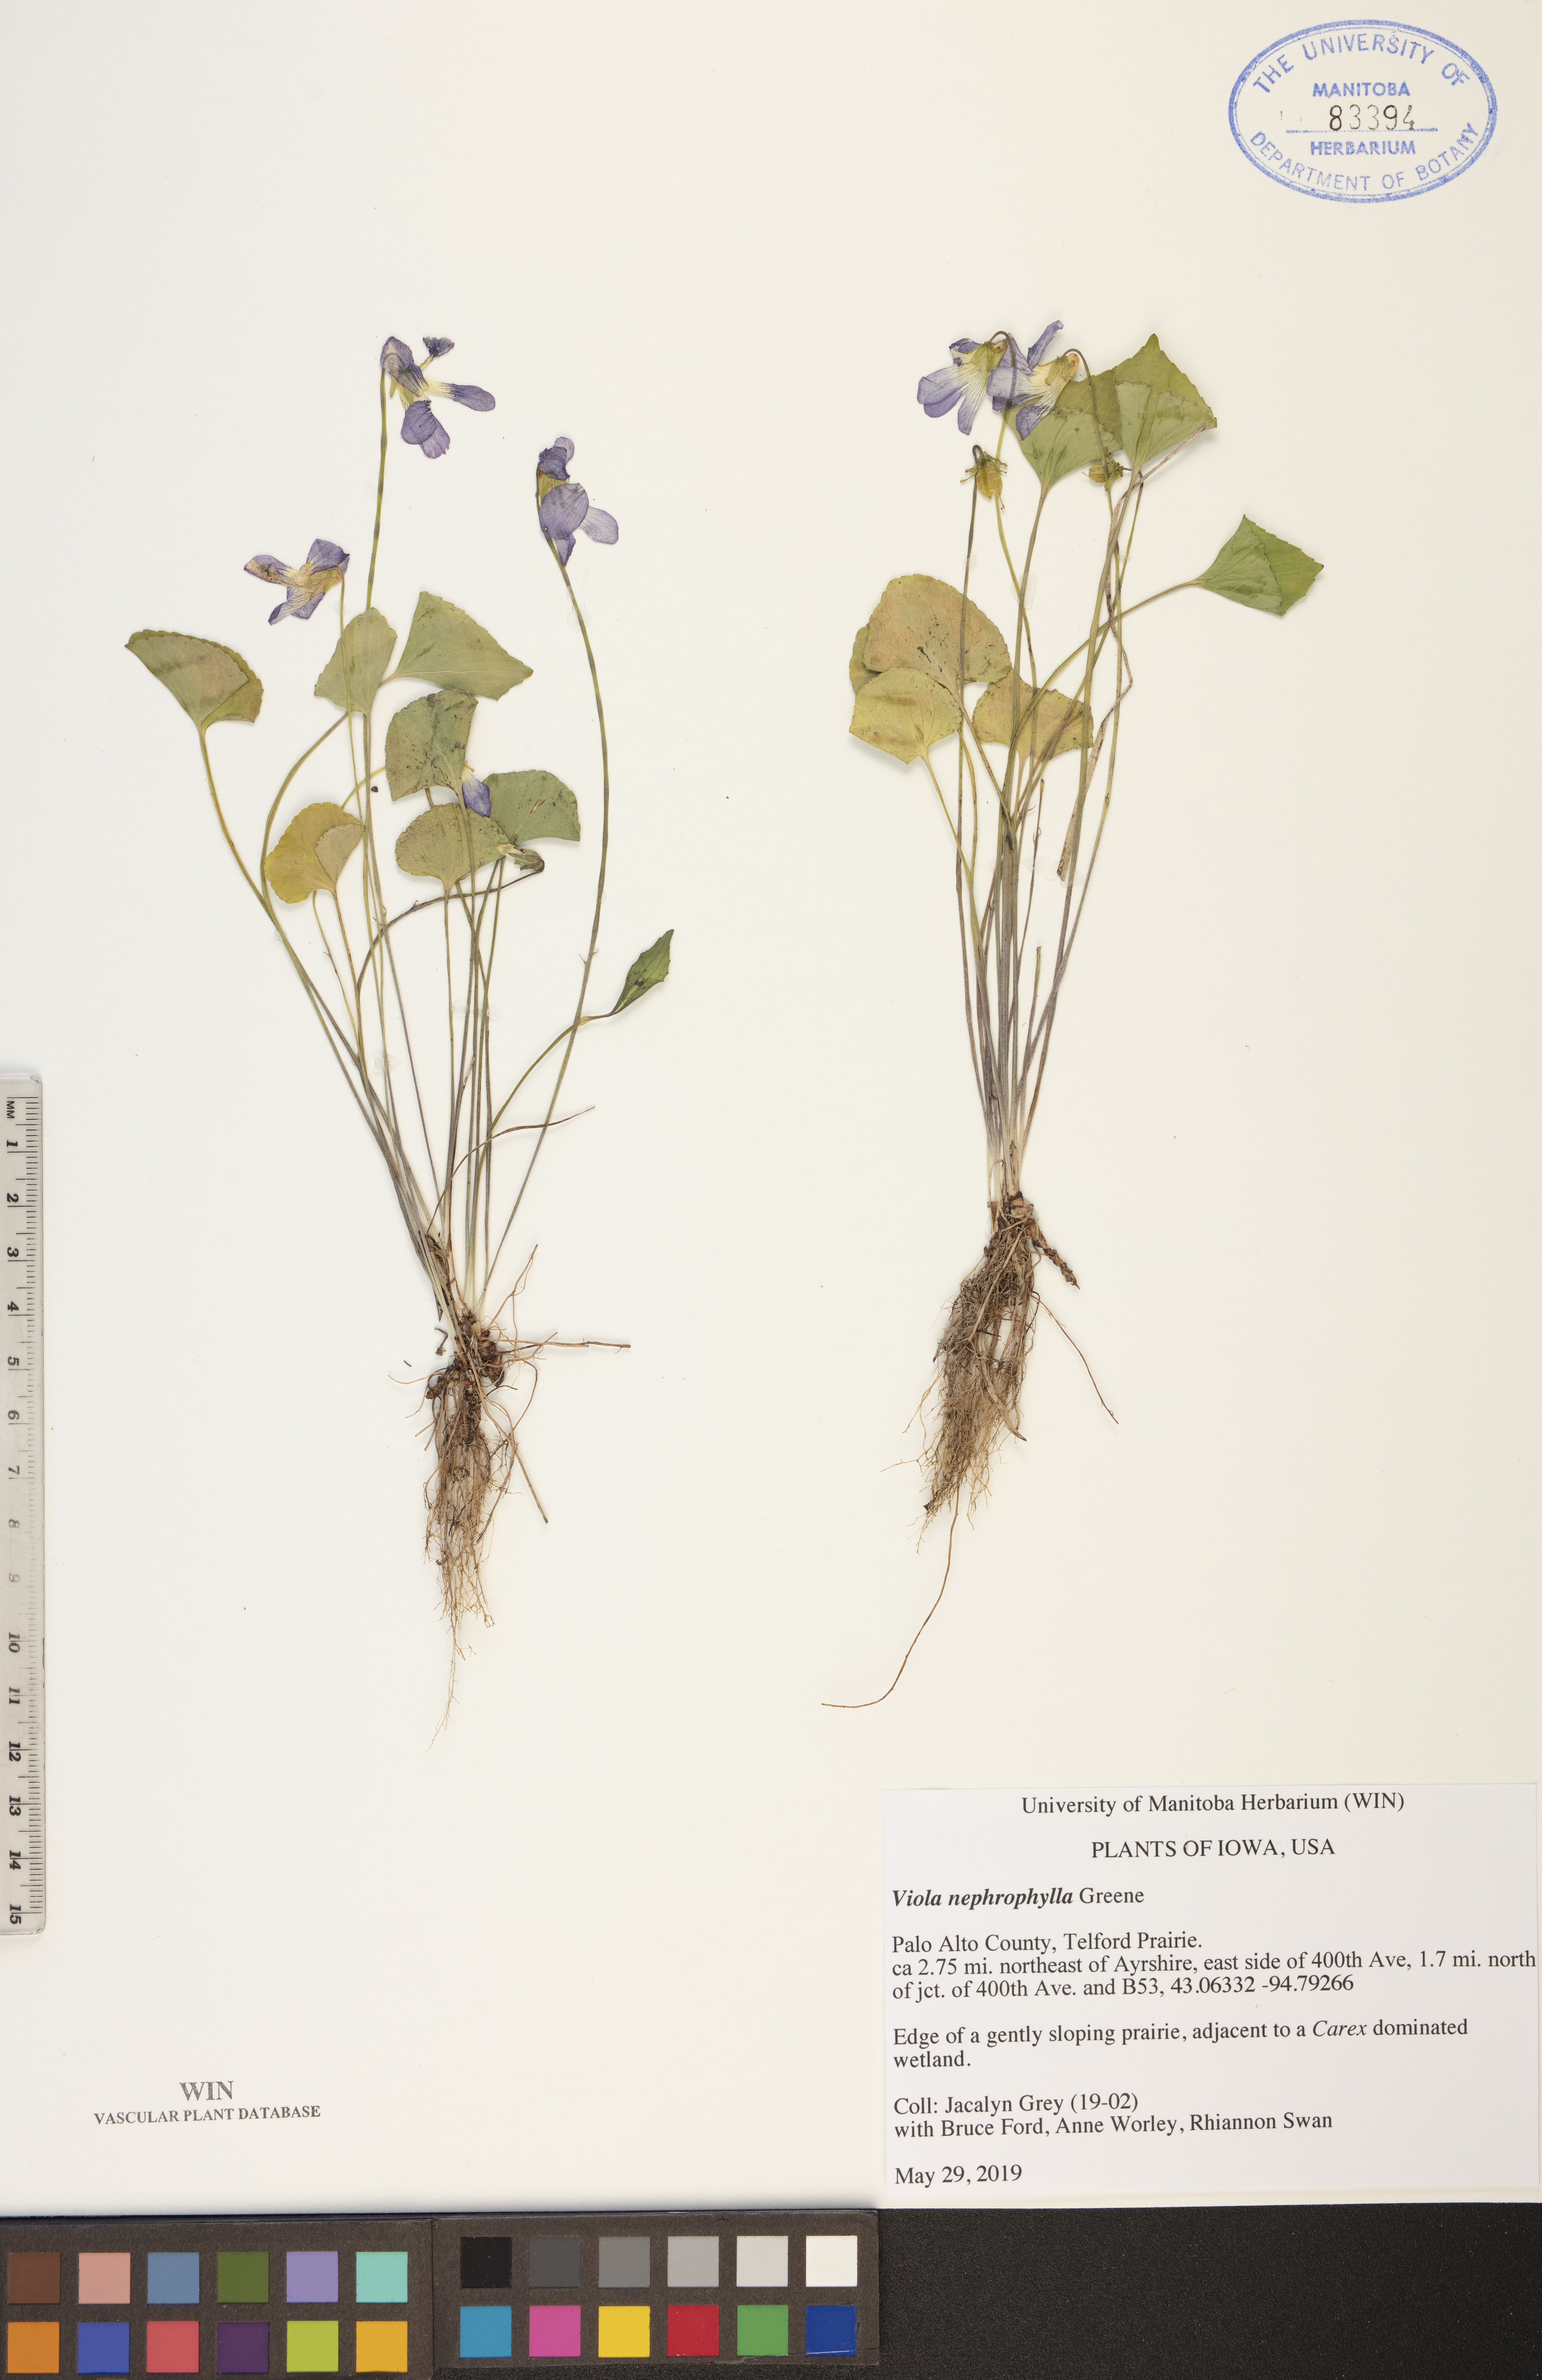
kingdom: Plantae
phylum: Tracheophyta
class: Magnoliopsida
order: Malpighiales
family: Violaceae
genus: Viola
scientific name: Viola nephrophylla
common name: Blue meadow violet
